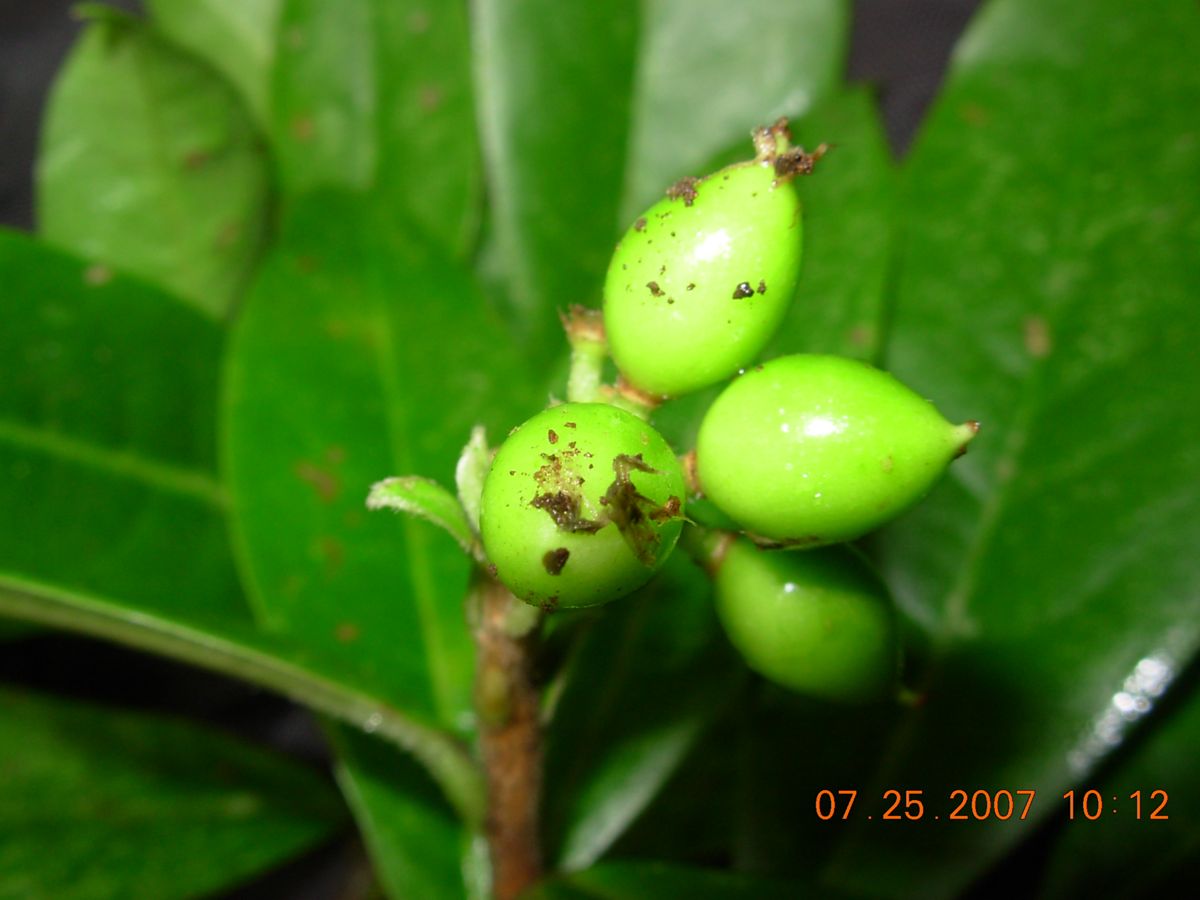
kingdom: Plantae
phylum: Tracheophyta
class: Magnoliopsida
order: Malvales
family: Thymelaeaceae
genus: Daphnopsis
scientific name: Daphnopsis selerorum
